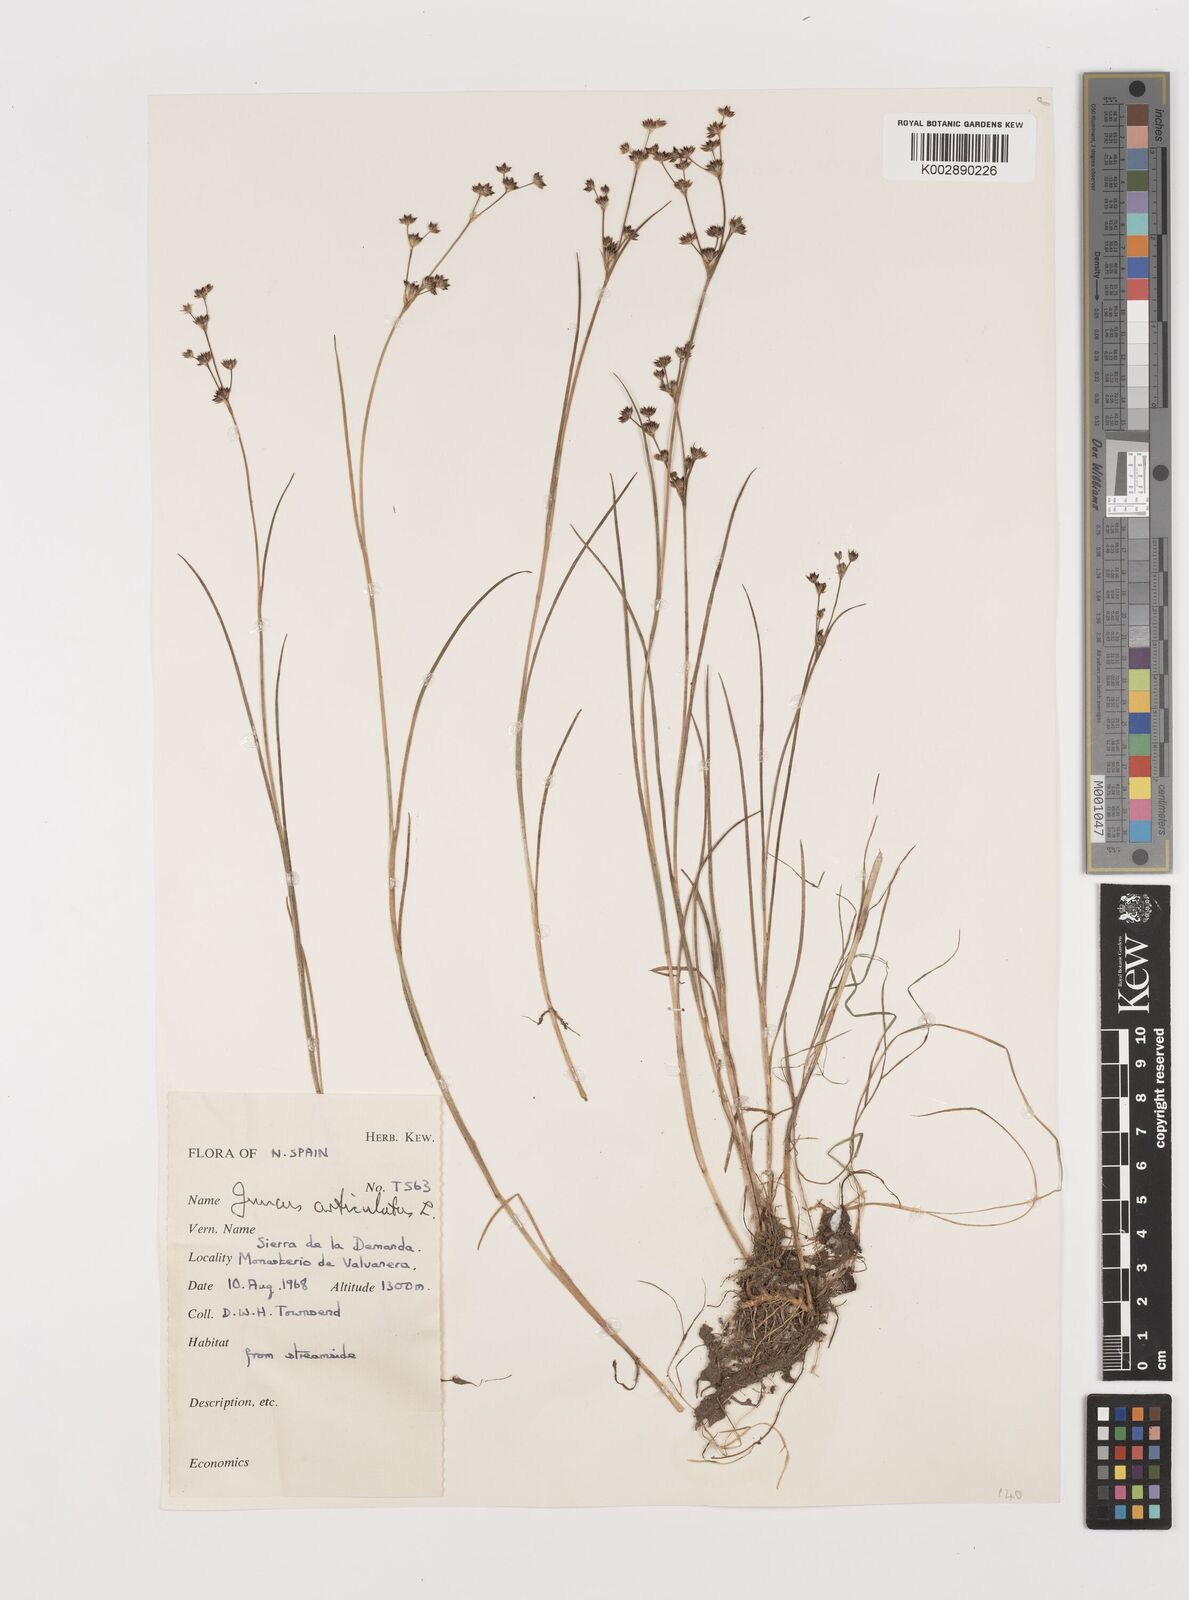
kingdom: Plantae
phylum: Tracheophyta
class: Liliopsida
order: Poales
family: Juncaceae
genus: Juncus
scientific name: Juncus articulatus
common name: Jointed rush
